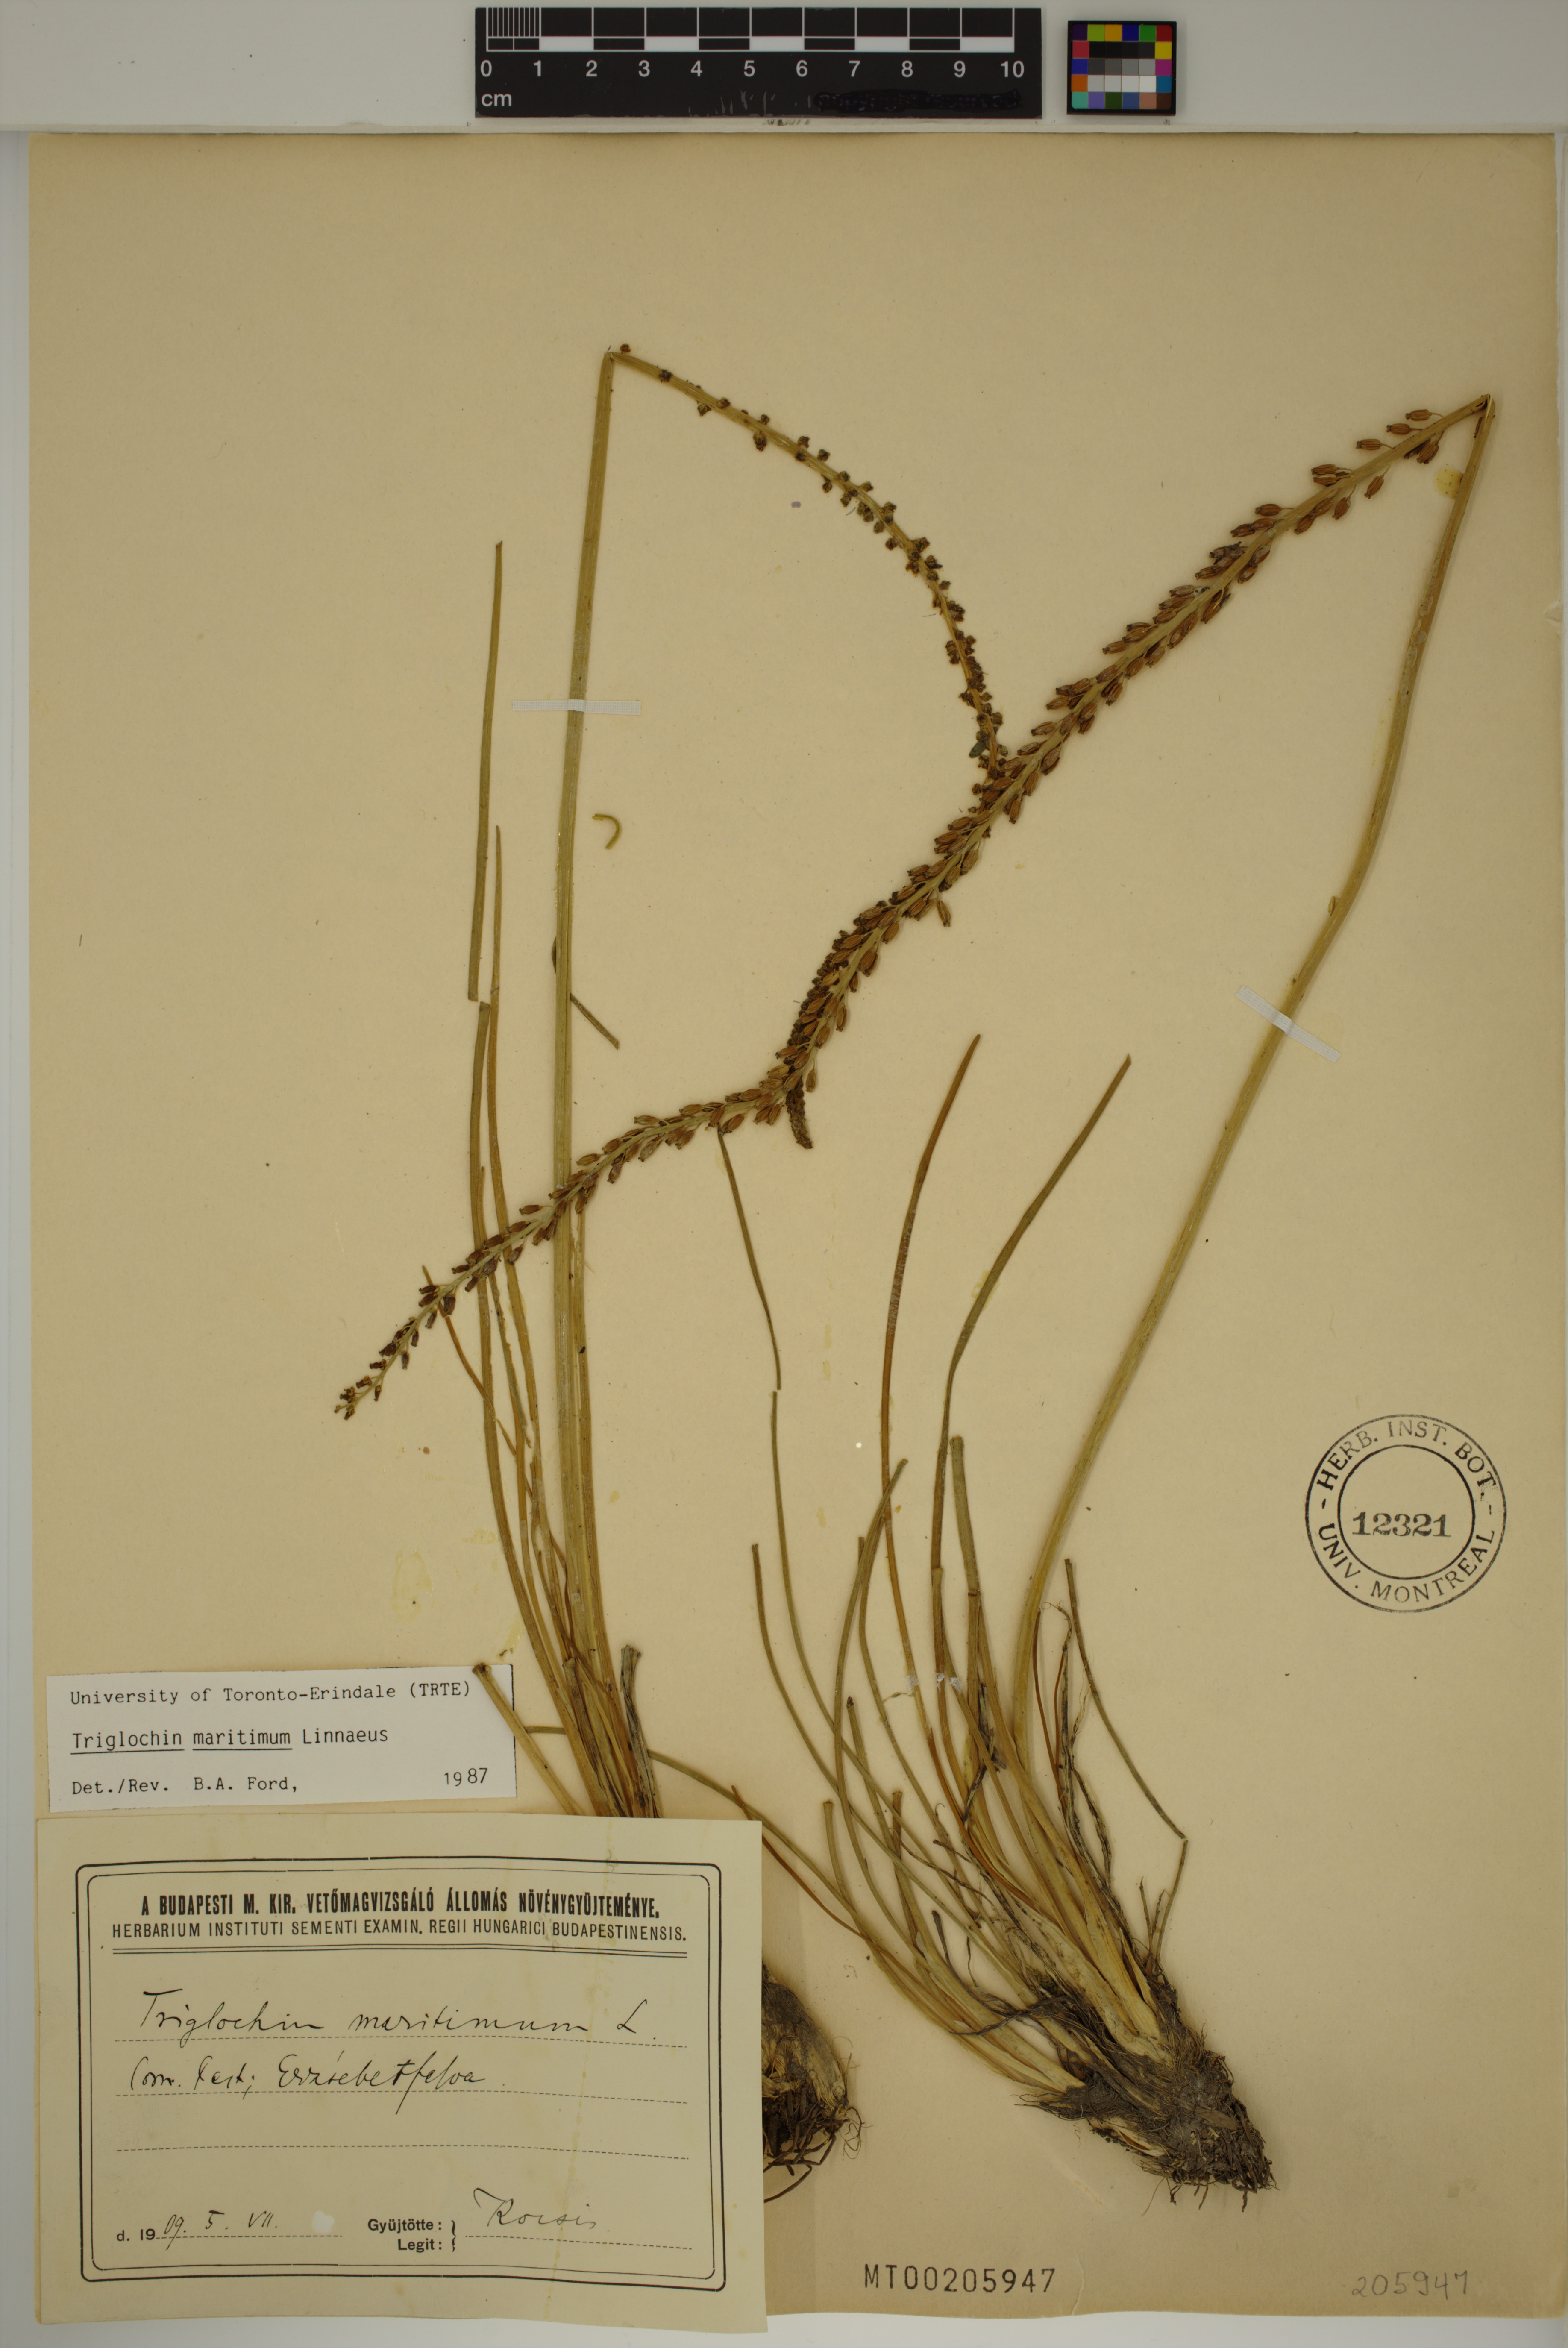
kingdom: Plantae
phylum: Tracheophyta
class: Liliopsida
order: Alismatales
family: Juncaginaceae
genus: Triglochin
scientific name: Triglochin maritima
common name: Sea arrowgrass
